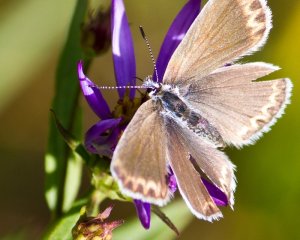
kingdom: Animalia
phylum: Arthropoda
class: Insecta
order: Lepidoptera
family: Lycaenidae
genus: Lycaeides
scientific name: Lycaeides anna
